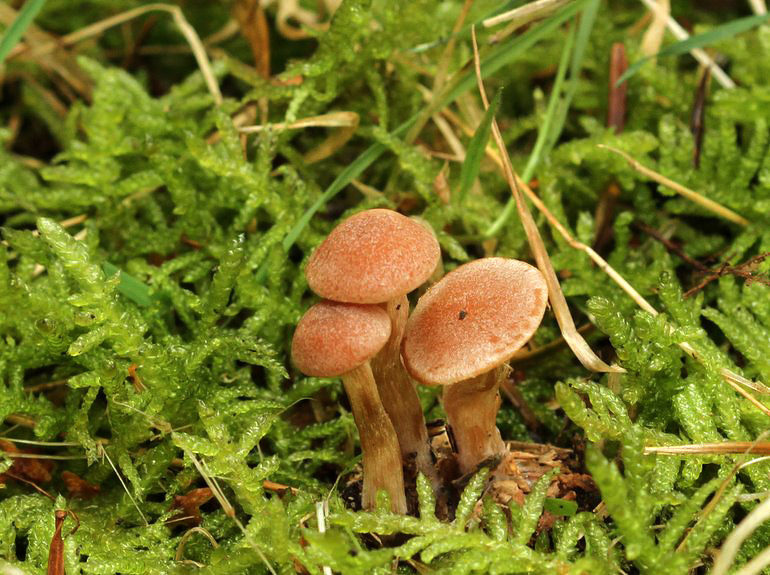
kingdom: Fungi
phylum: Basidiomycota
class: Agaricomycetes
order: Agaricales
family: Tubariaceae
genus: Tubaria
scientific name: Tubaria furfuracea
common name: kliddet fnughat
